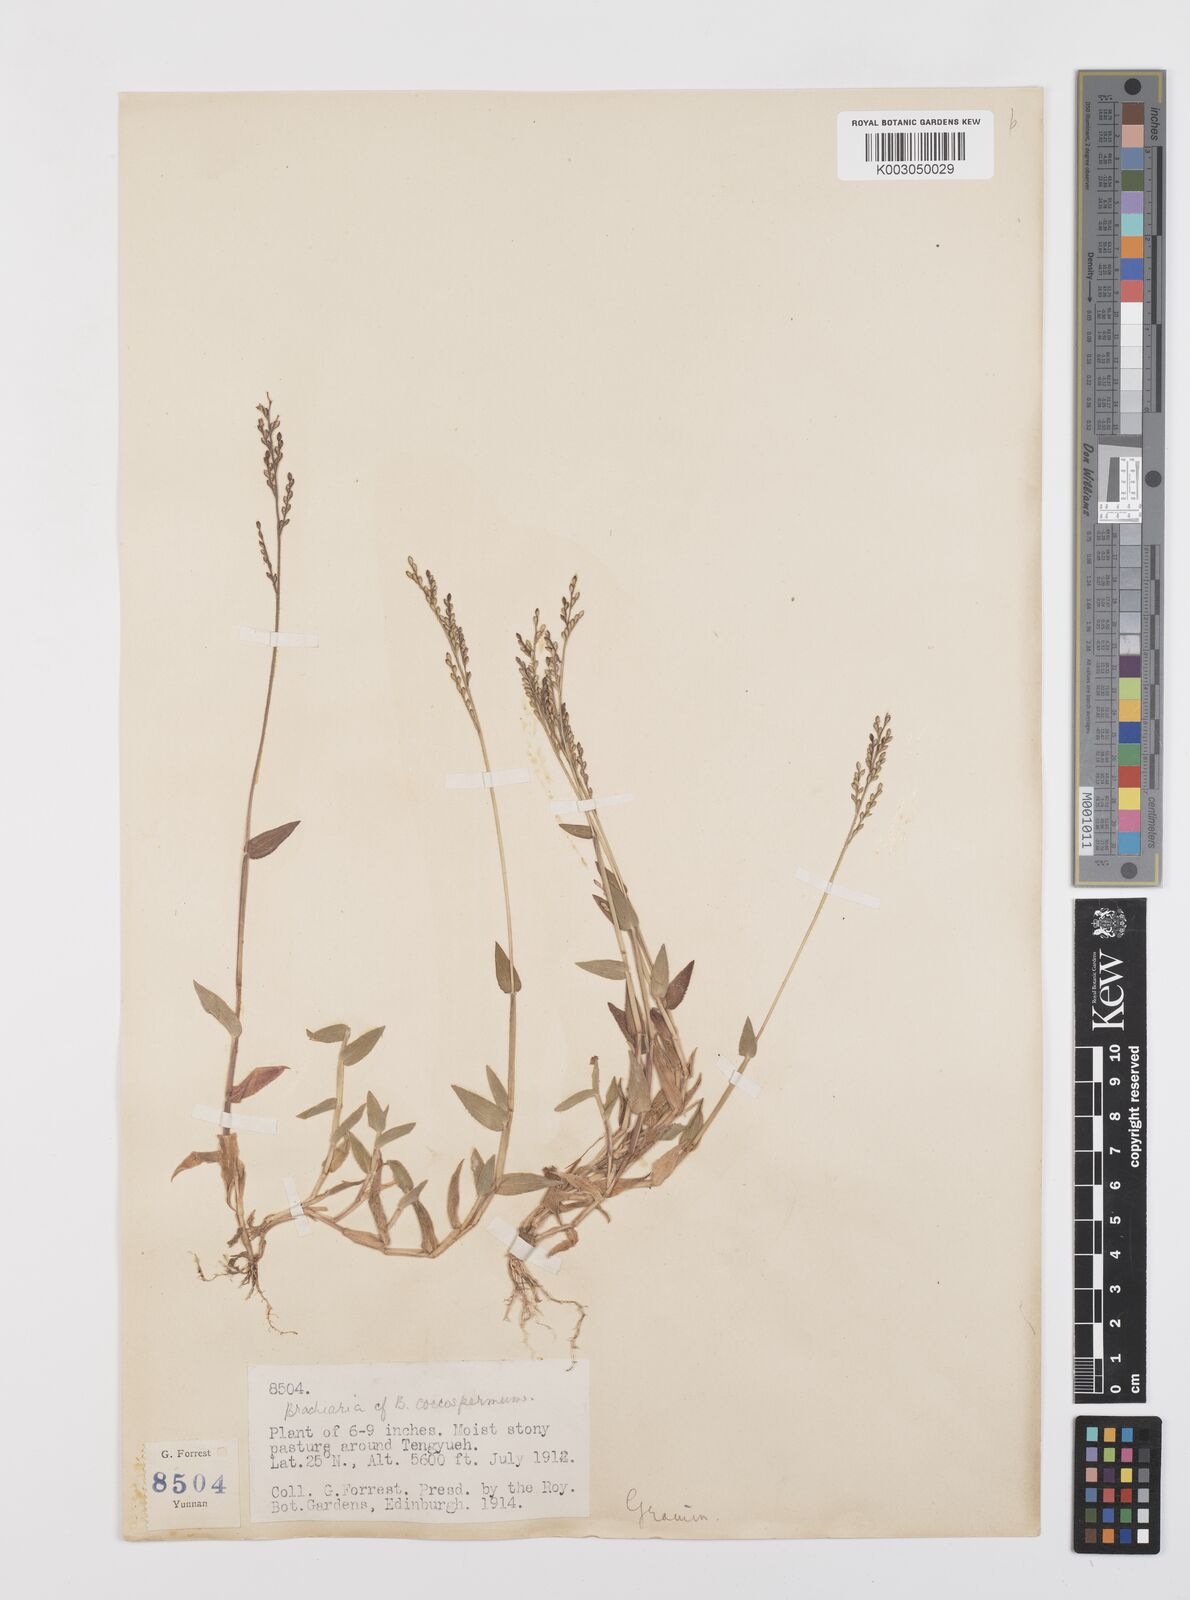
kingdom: Plantae
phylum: Tracheophyta
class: Liliopsida
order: Poales
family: Poaceae
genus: Urochloa
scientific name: Urochloa villosa
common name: Hairy signalgrass
